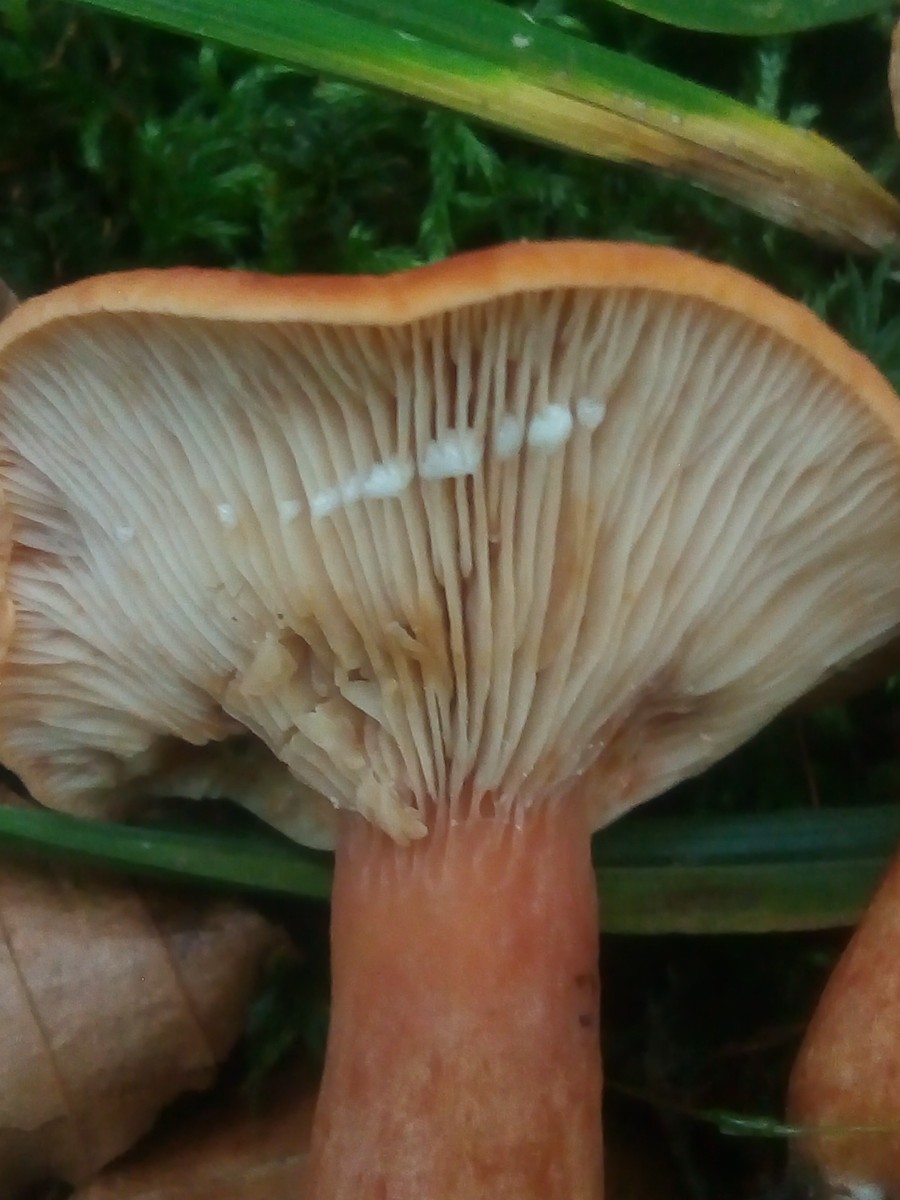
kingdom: Fungi
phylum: Basidiomycota
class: Agaricomycetes
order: Russulales
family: Russulaceae
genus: Lactarius
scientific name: Lactarius fulvissimus
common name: ræve-mælkehat
